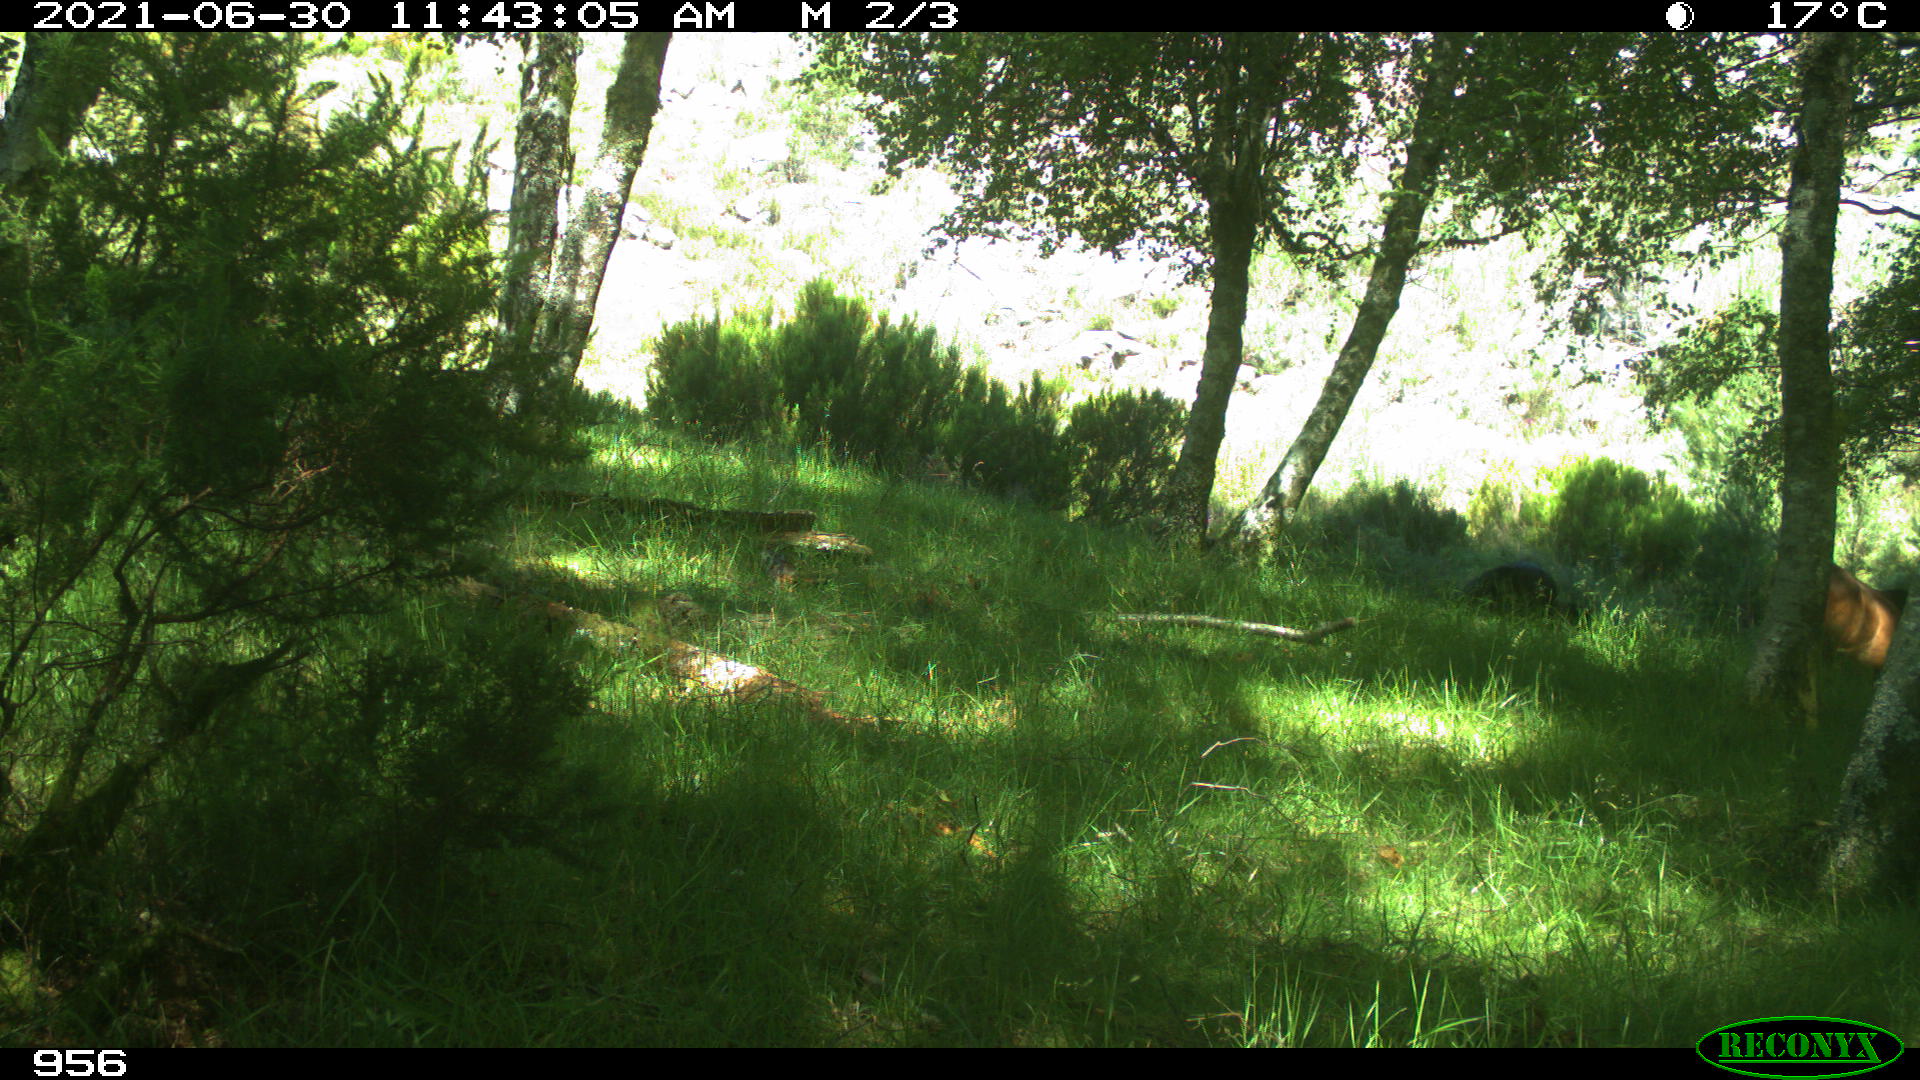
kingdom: Animalia
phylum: Chordata
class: Mammalia
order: Perissodactyla
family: Equidae
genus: Equus
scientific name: Equus caballus
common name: Horse
